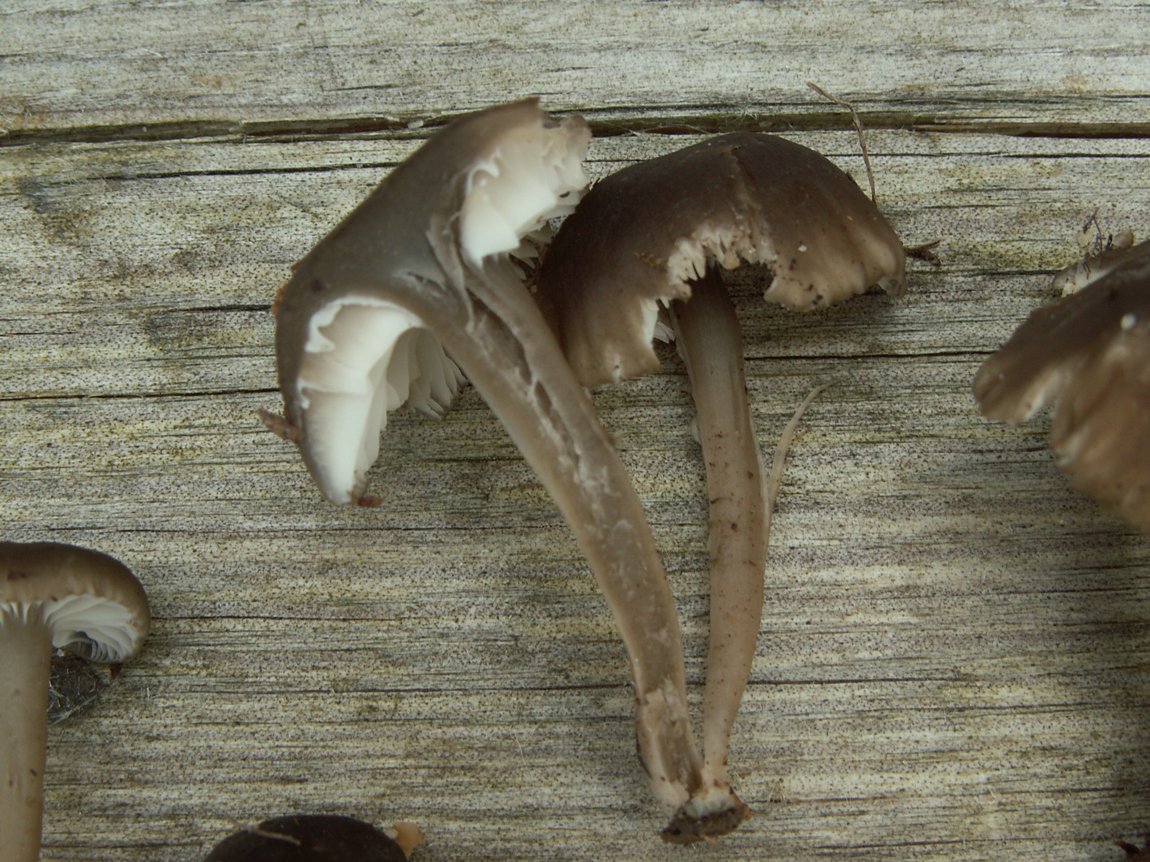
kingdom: Fungi
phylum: Basidiomycota
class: Agaricomycetes
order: Agaricales
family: Clavariaceae
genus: Camarophyllopsis
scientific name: Camarophyllopsis atrovelutina
